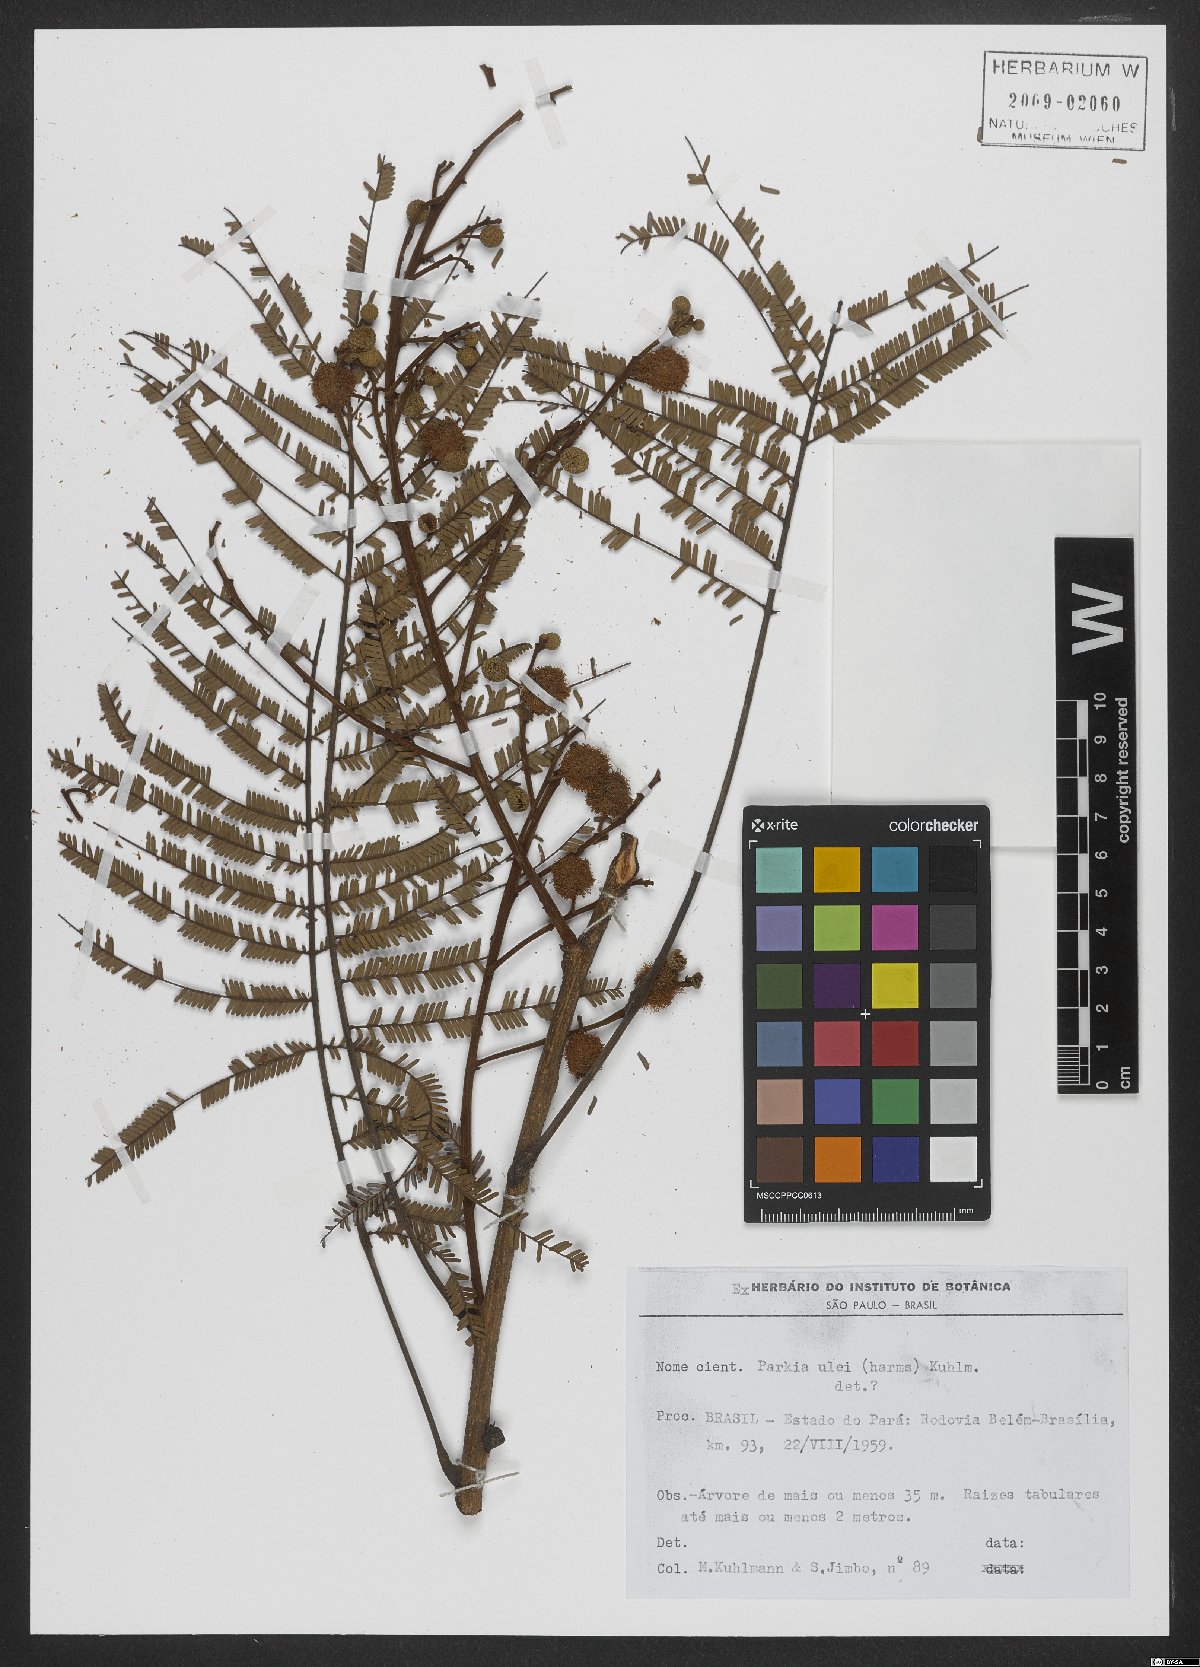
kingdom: Plantae
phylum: Tracheophyta
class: Magnoliopsida
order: Fabales
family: Fabaceae
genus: Parkia
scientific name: Parkia ulei
